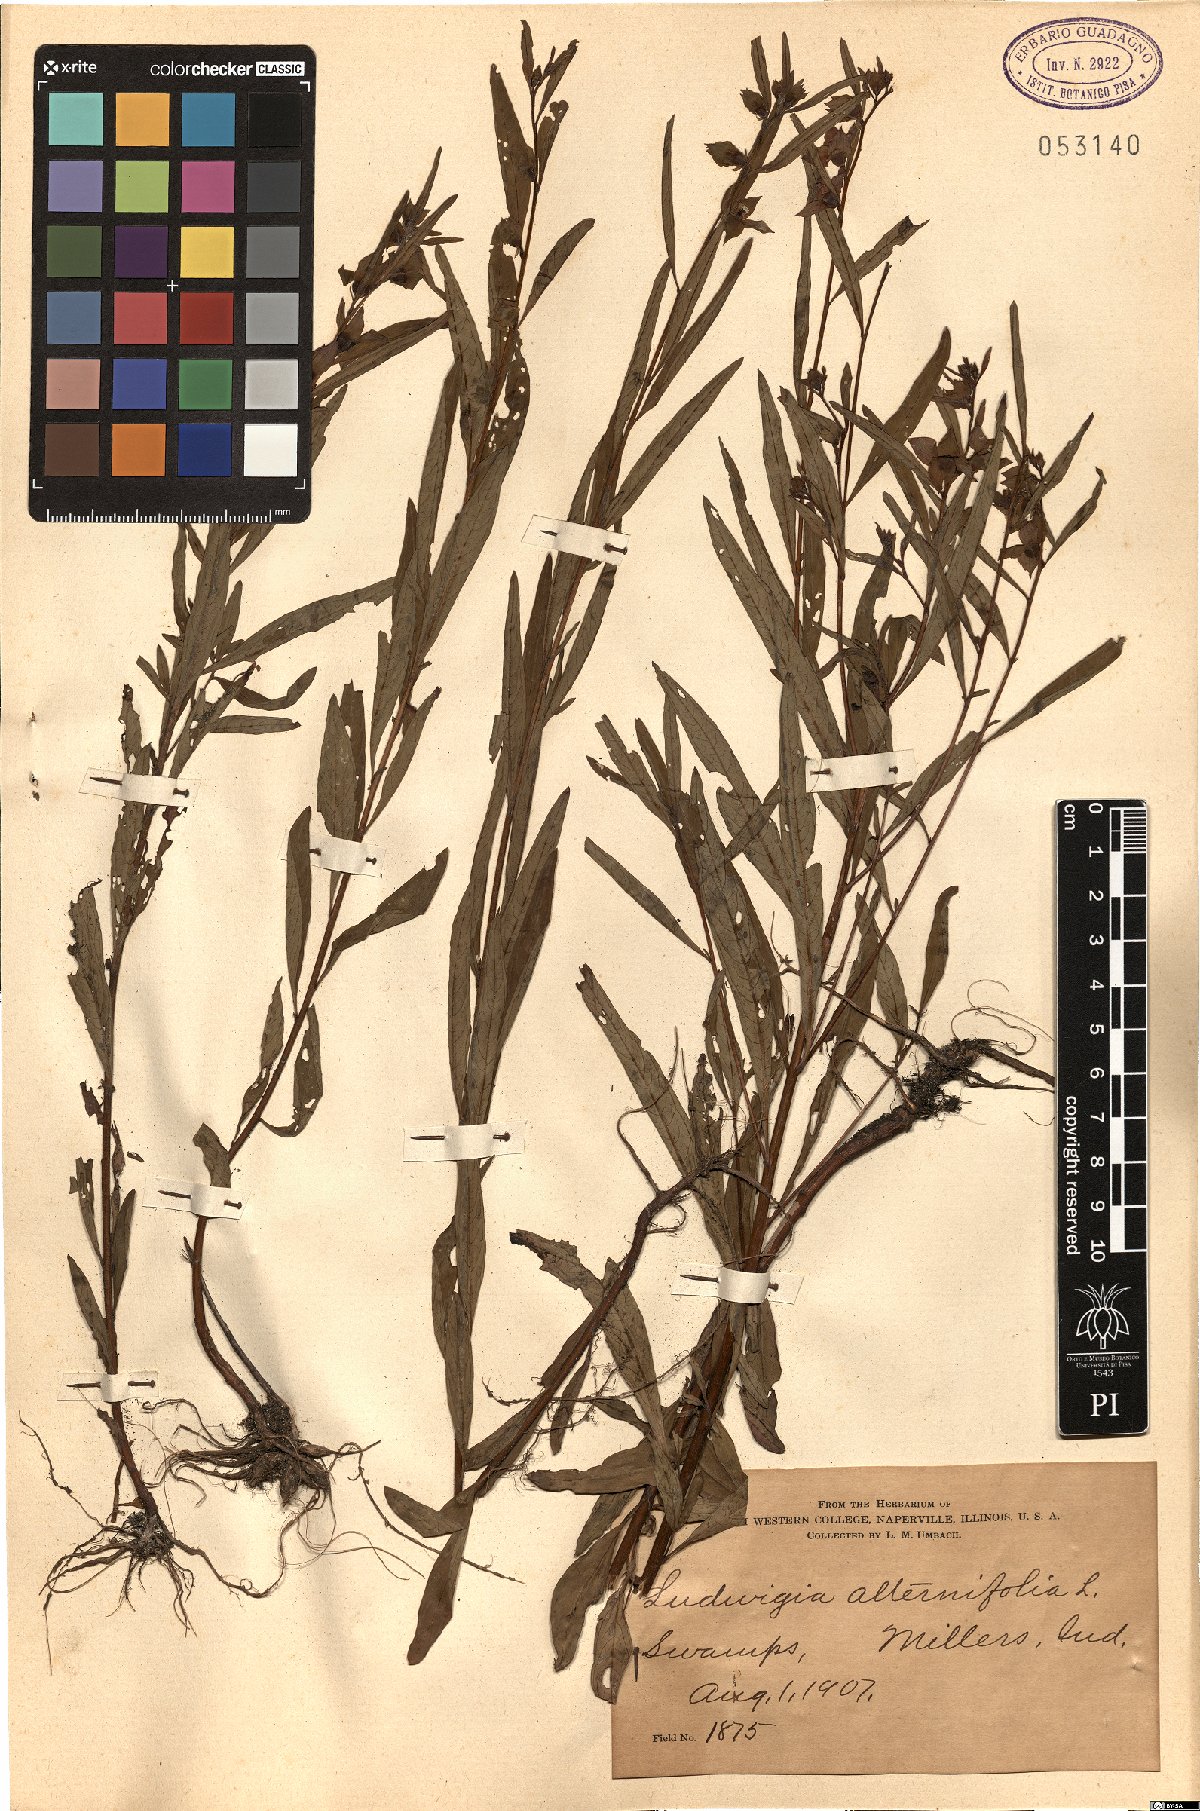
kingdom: Plantae
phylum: Tracheophyta
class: Magnoliopsida
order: Myrtales
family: Onagraceae
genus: Ludwigia
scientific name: Ludwigia alternifolia
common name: Rattlebox
